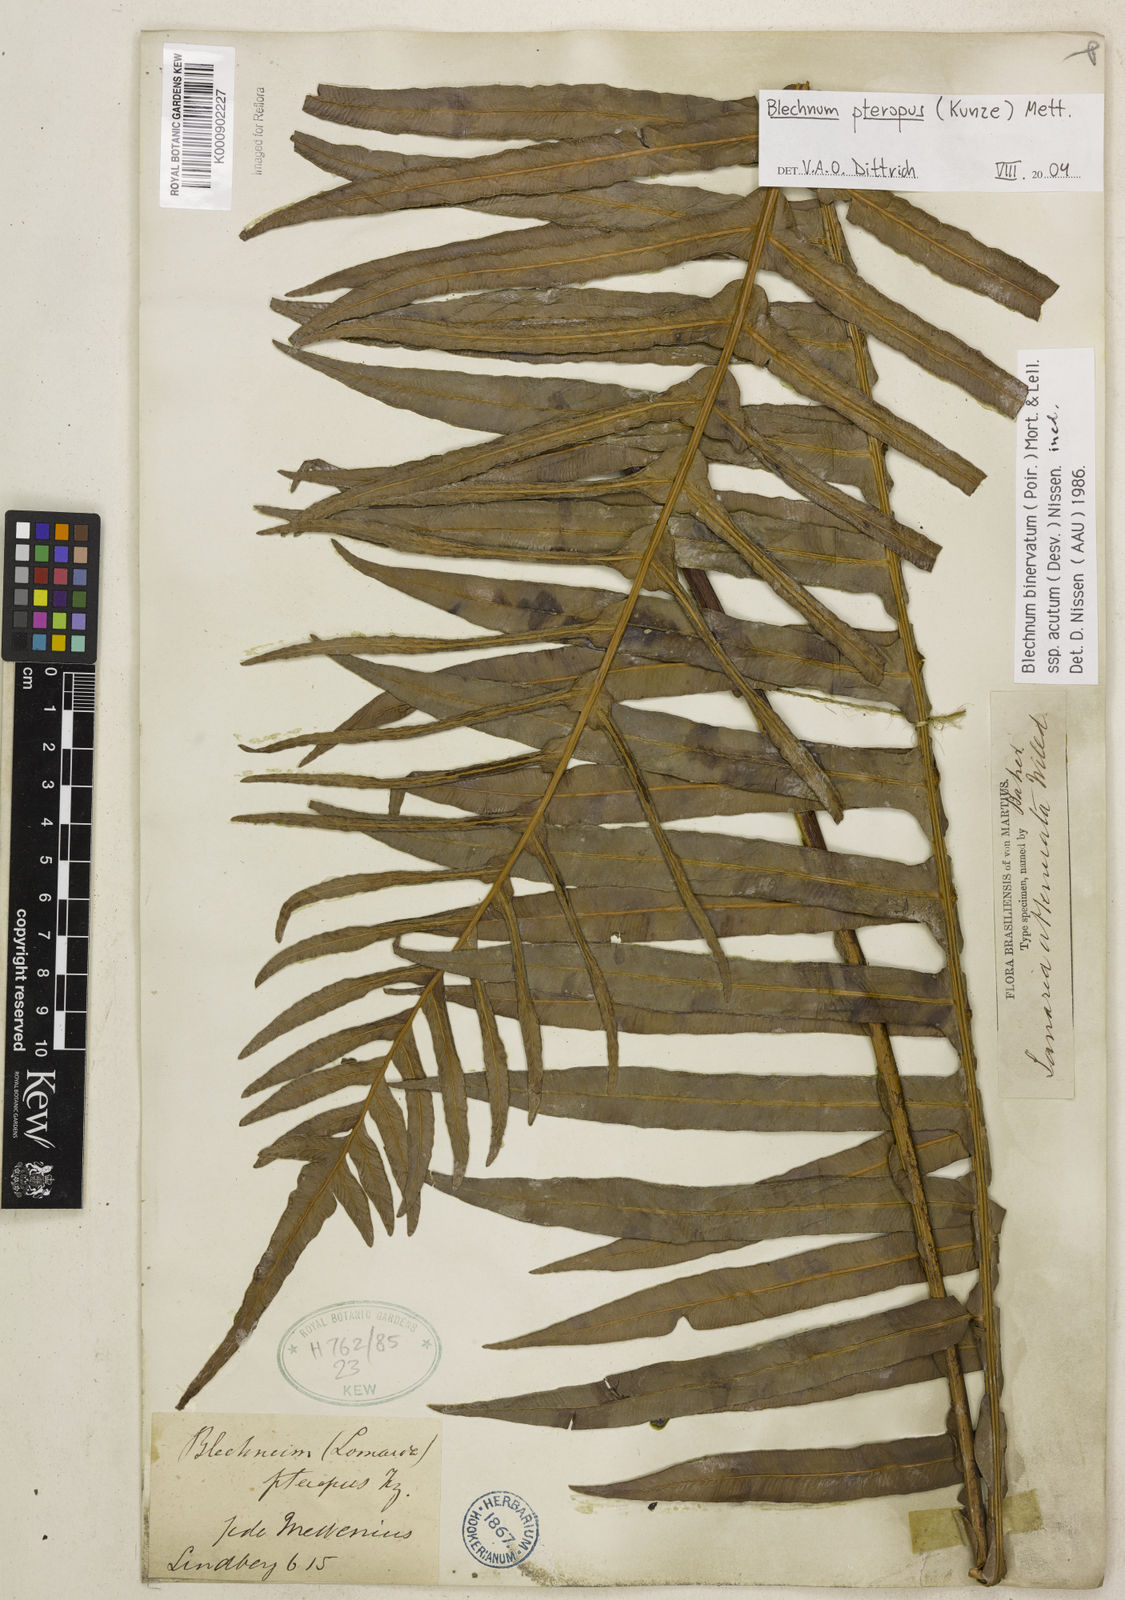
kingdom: Plantae
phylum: Tracheophyta
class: Polypodiopsida
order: Polypodiales
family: Blechnaceae
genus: Lomaridium
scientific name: Lomaridium pteropus
